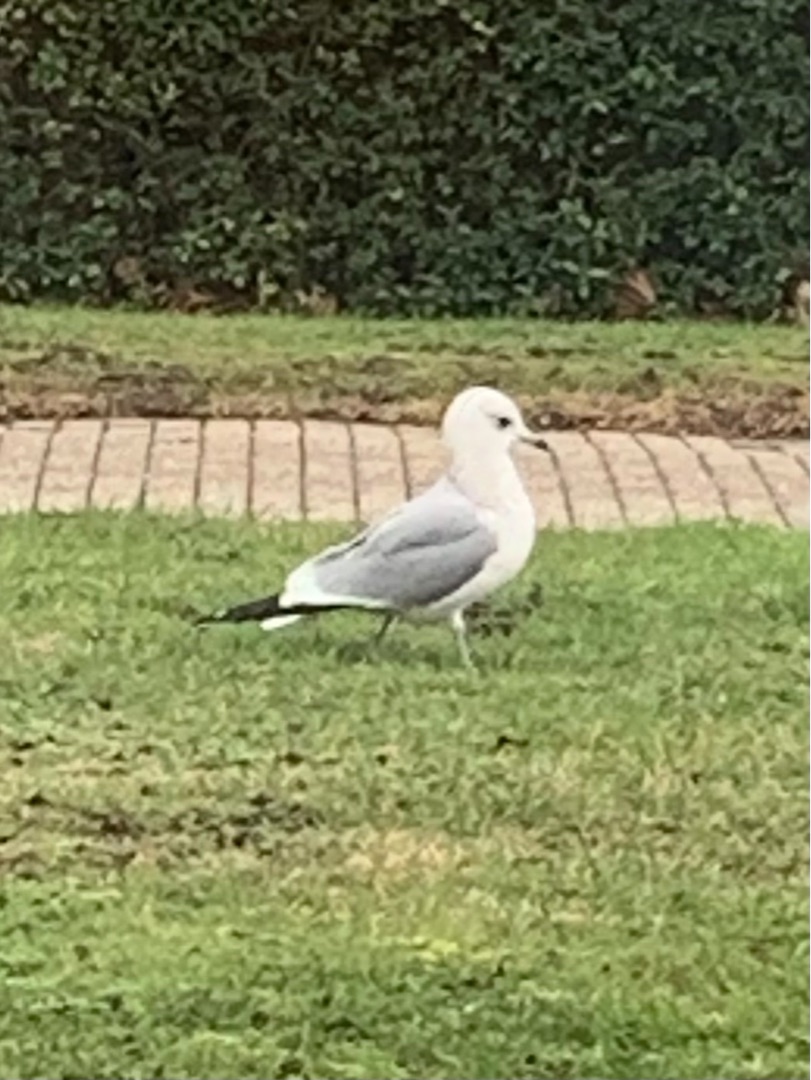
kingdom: Animalia
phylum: Chordata
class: Aves
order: Charadriiformes
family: Laridae
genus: Larus
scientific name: Larus canus
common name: Stormmåge
